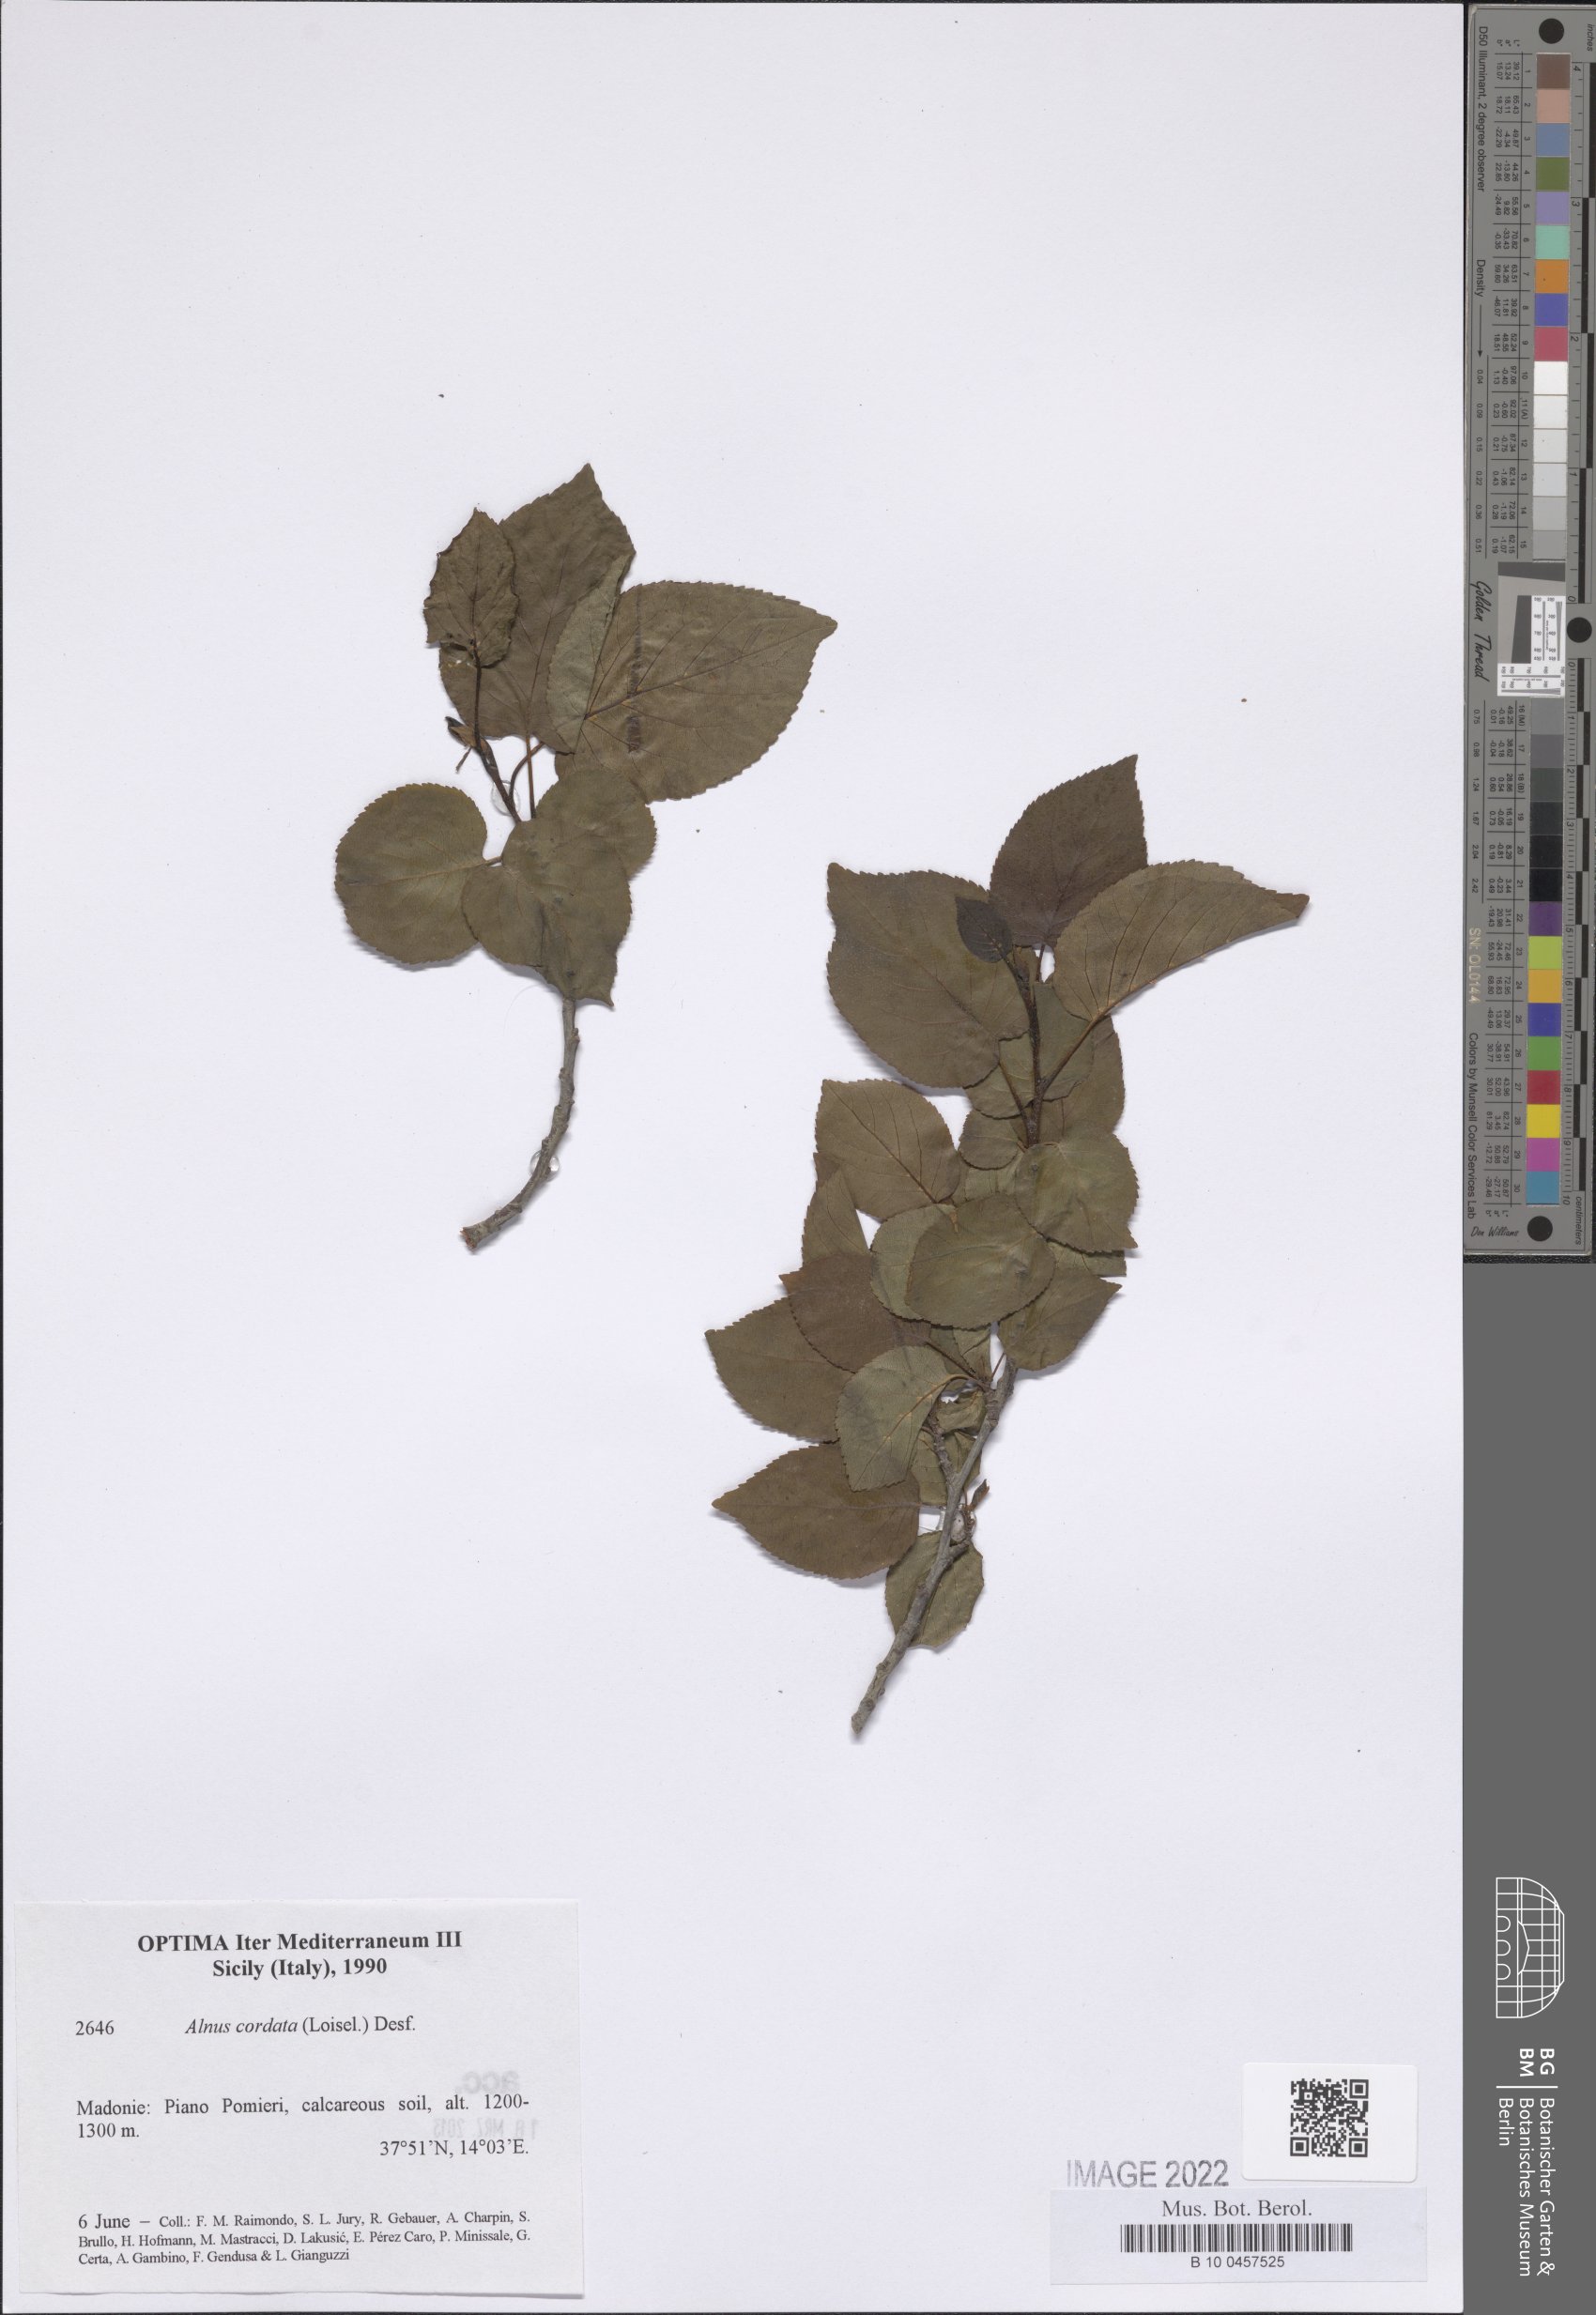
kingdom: Plantae
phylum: Tracheophyta
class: Magnoliopsida
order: Fagales
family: Betulaceae
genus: Alnus
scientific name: Alnus cordata
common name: Italian alder
